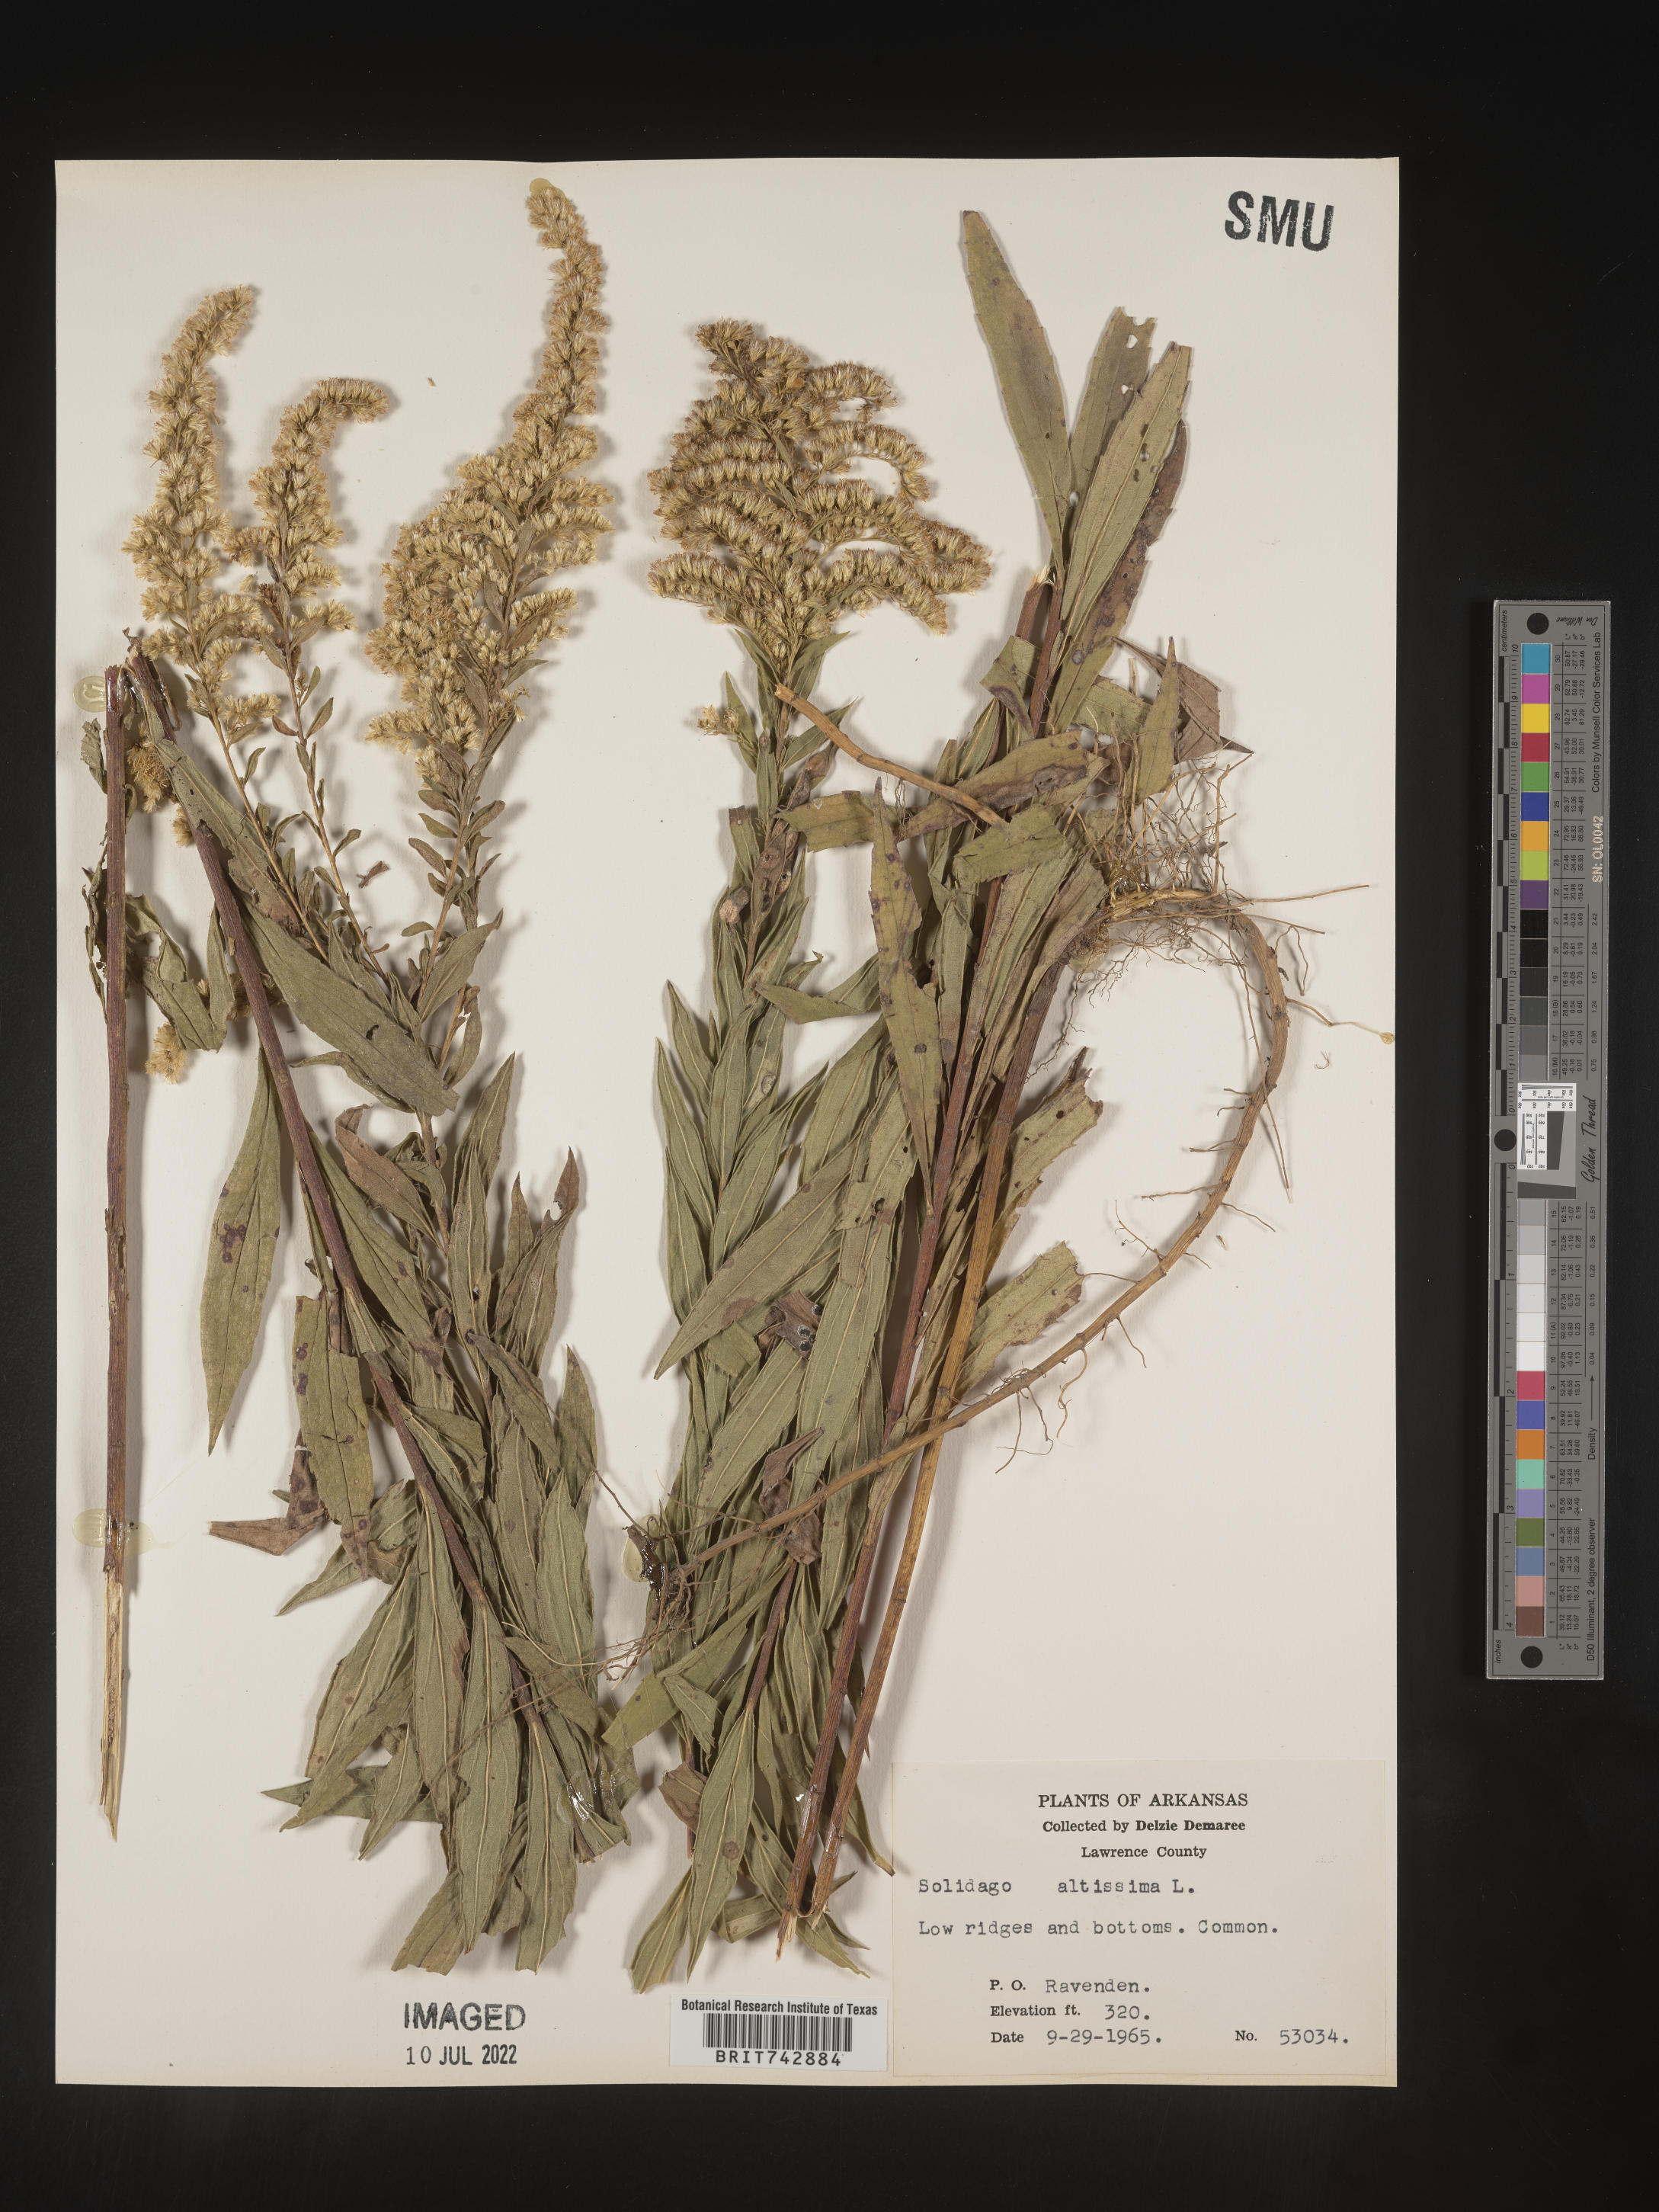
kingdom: Plantae
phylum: Tracheophyta
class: Magnoliopsida
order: Asterales
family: Asteraceae
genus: Solidago
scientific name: Solidago altissima
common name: Late goldenrod
